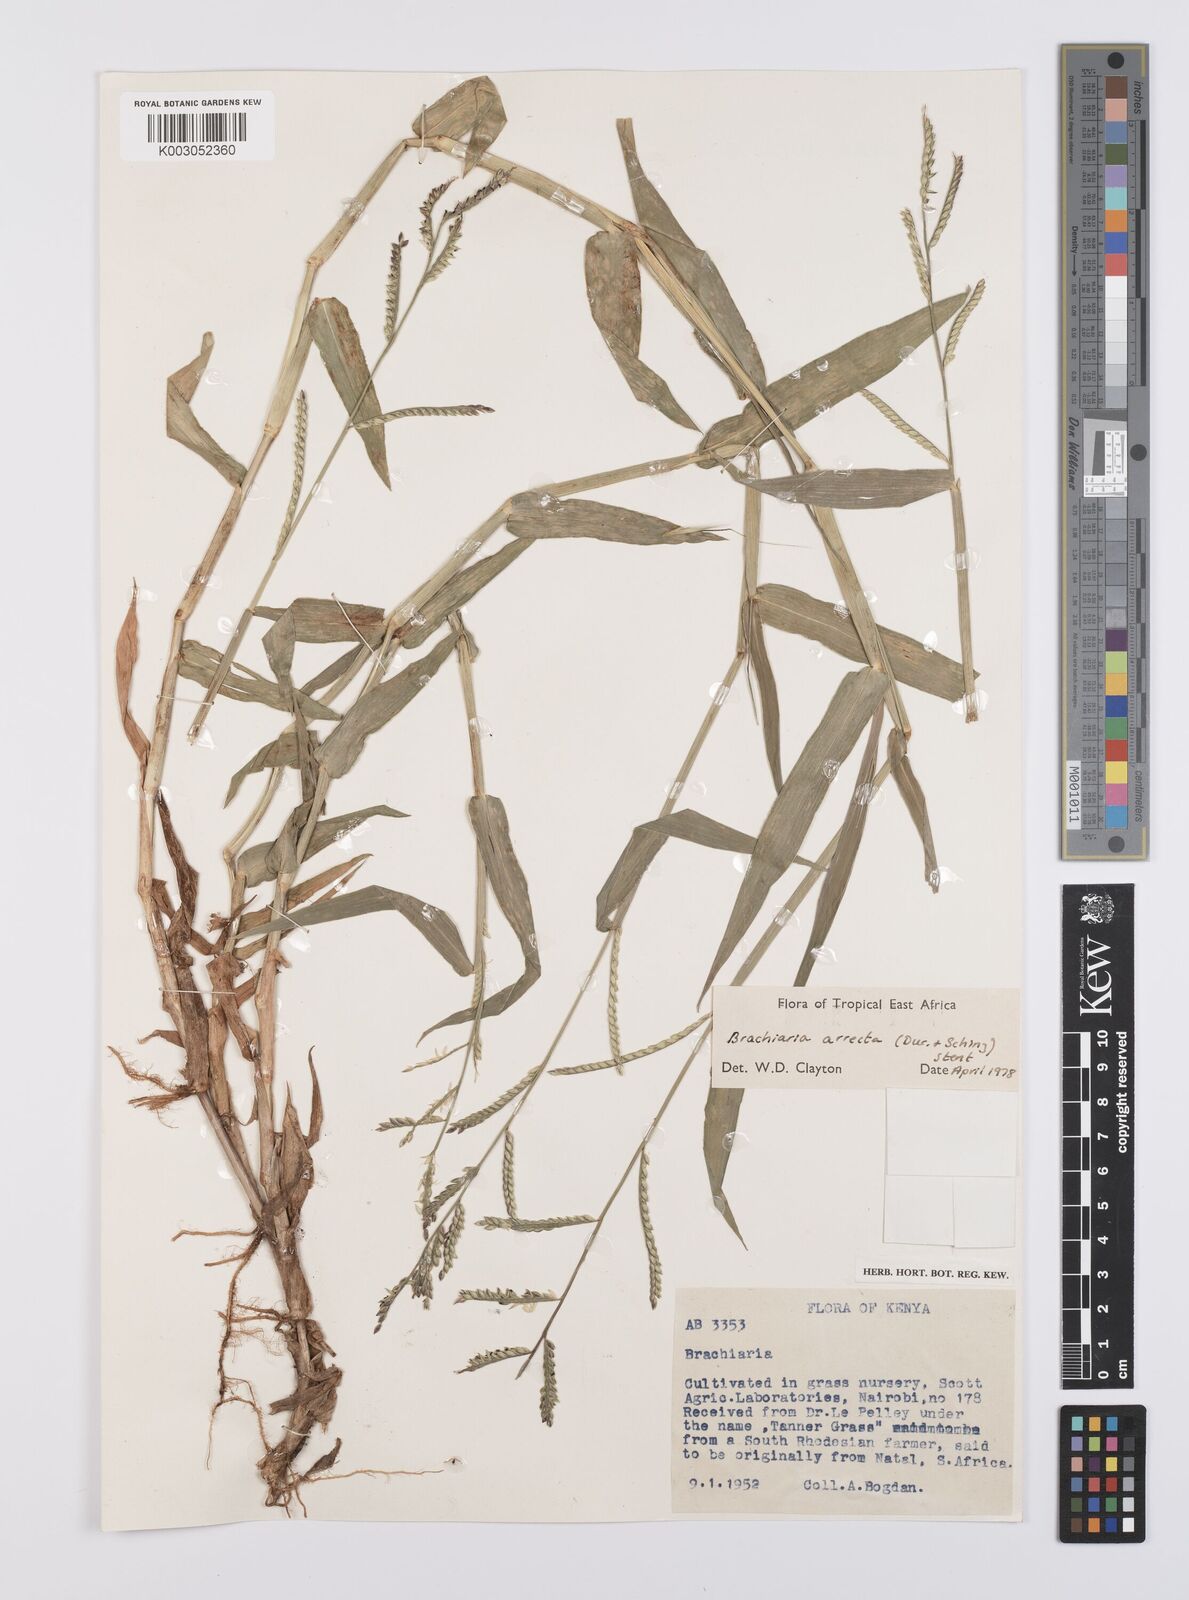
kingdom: Plantae
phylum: Tracheophyta
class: Liliopsida
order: Poales
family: Poaceae
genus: Urochloa
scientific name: Urochloa arrecta
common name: African signalgrass
